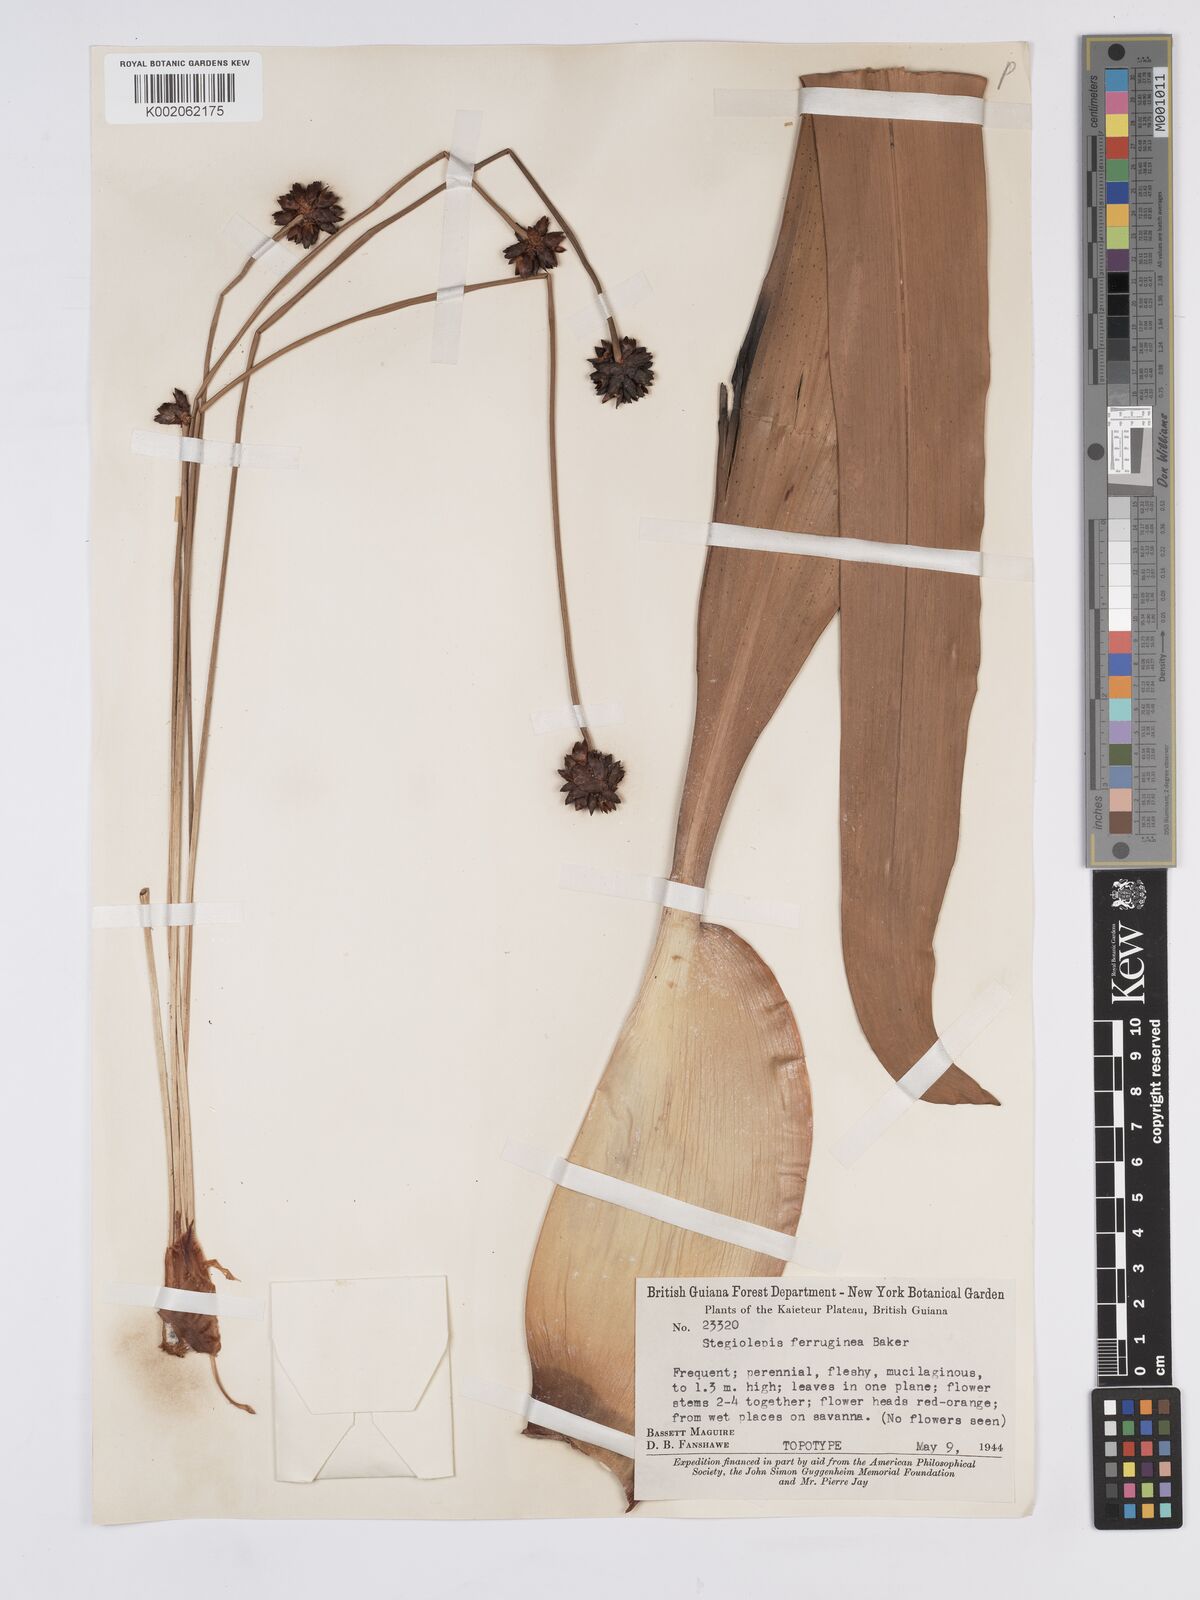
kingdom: Plantae
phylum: Tracheophyta
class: Liliopsida
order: Poales
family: Rapateaceae
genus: Stegolepis
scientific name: Stegolepis ferruginea
